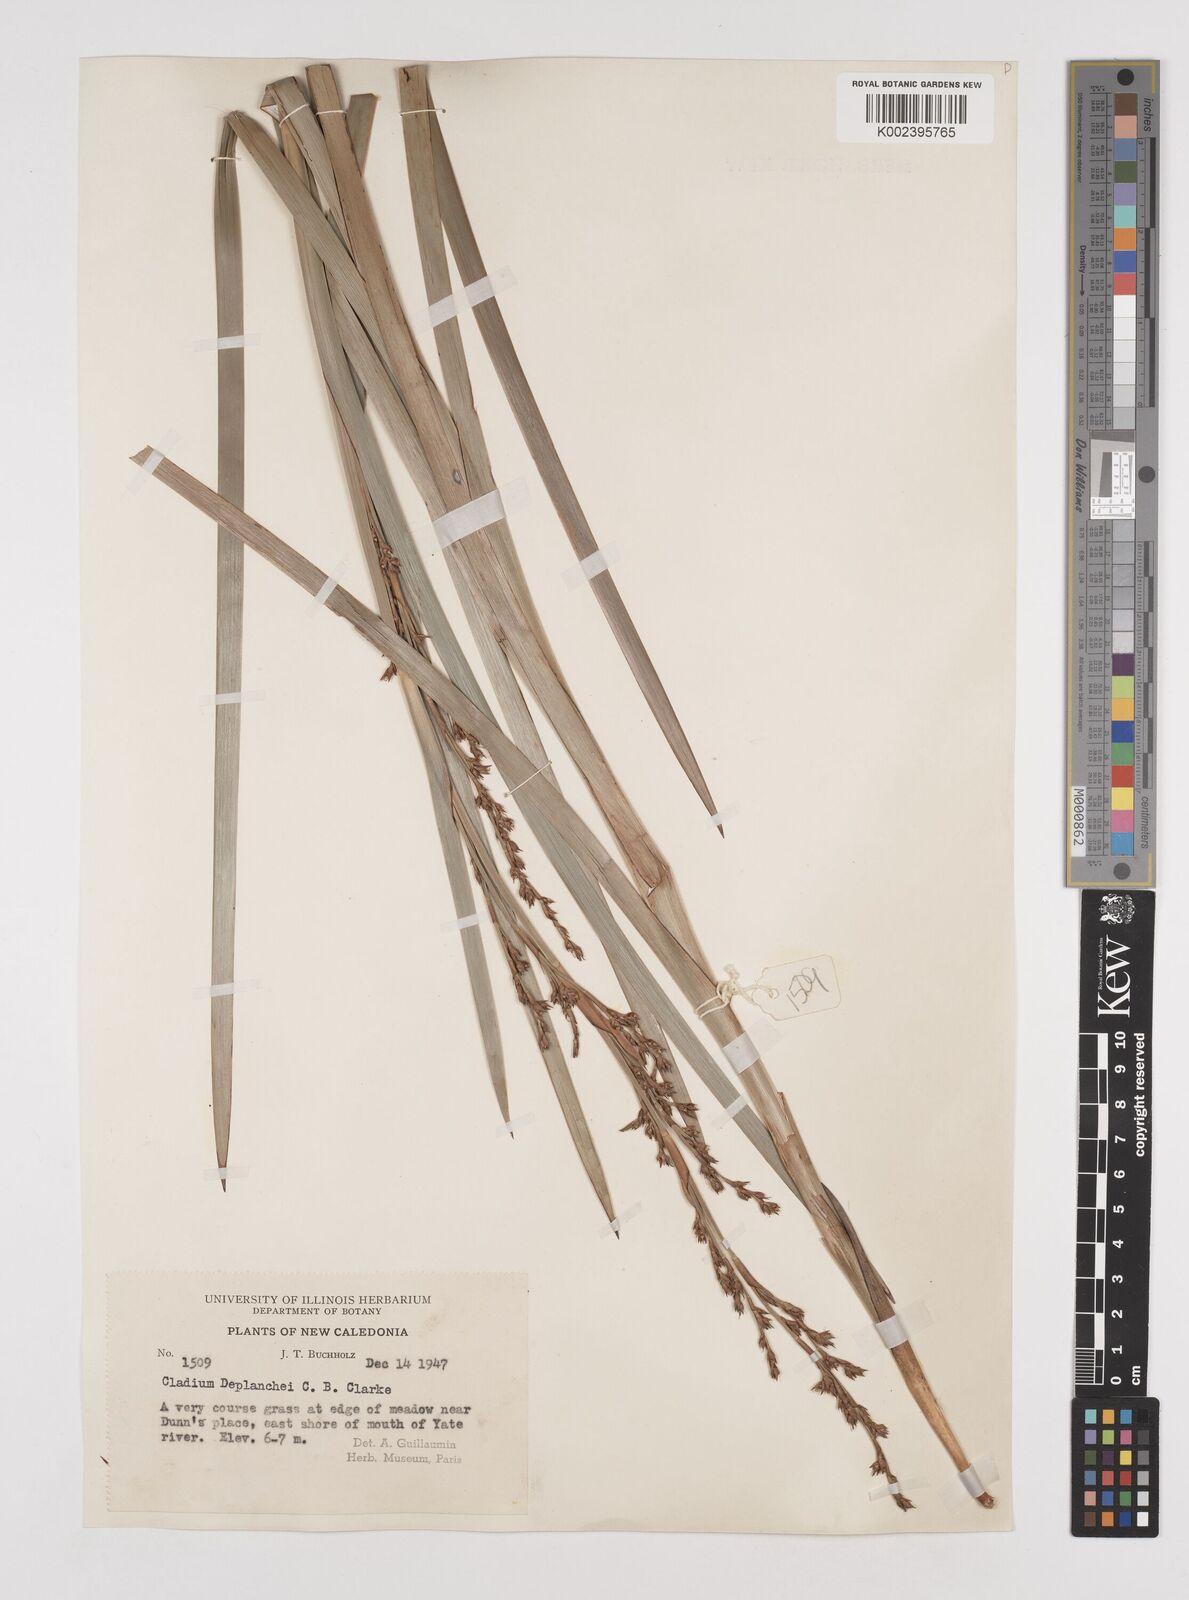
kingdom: Plantae
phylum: Tracheophyta
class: Liliopsida
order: Poales
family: Cyperaceae
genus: Machaerina
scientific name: Machaerina deplanchei
